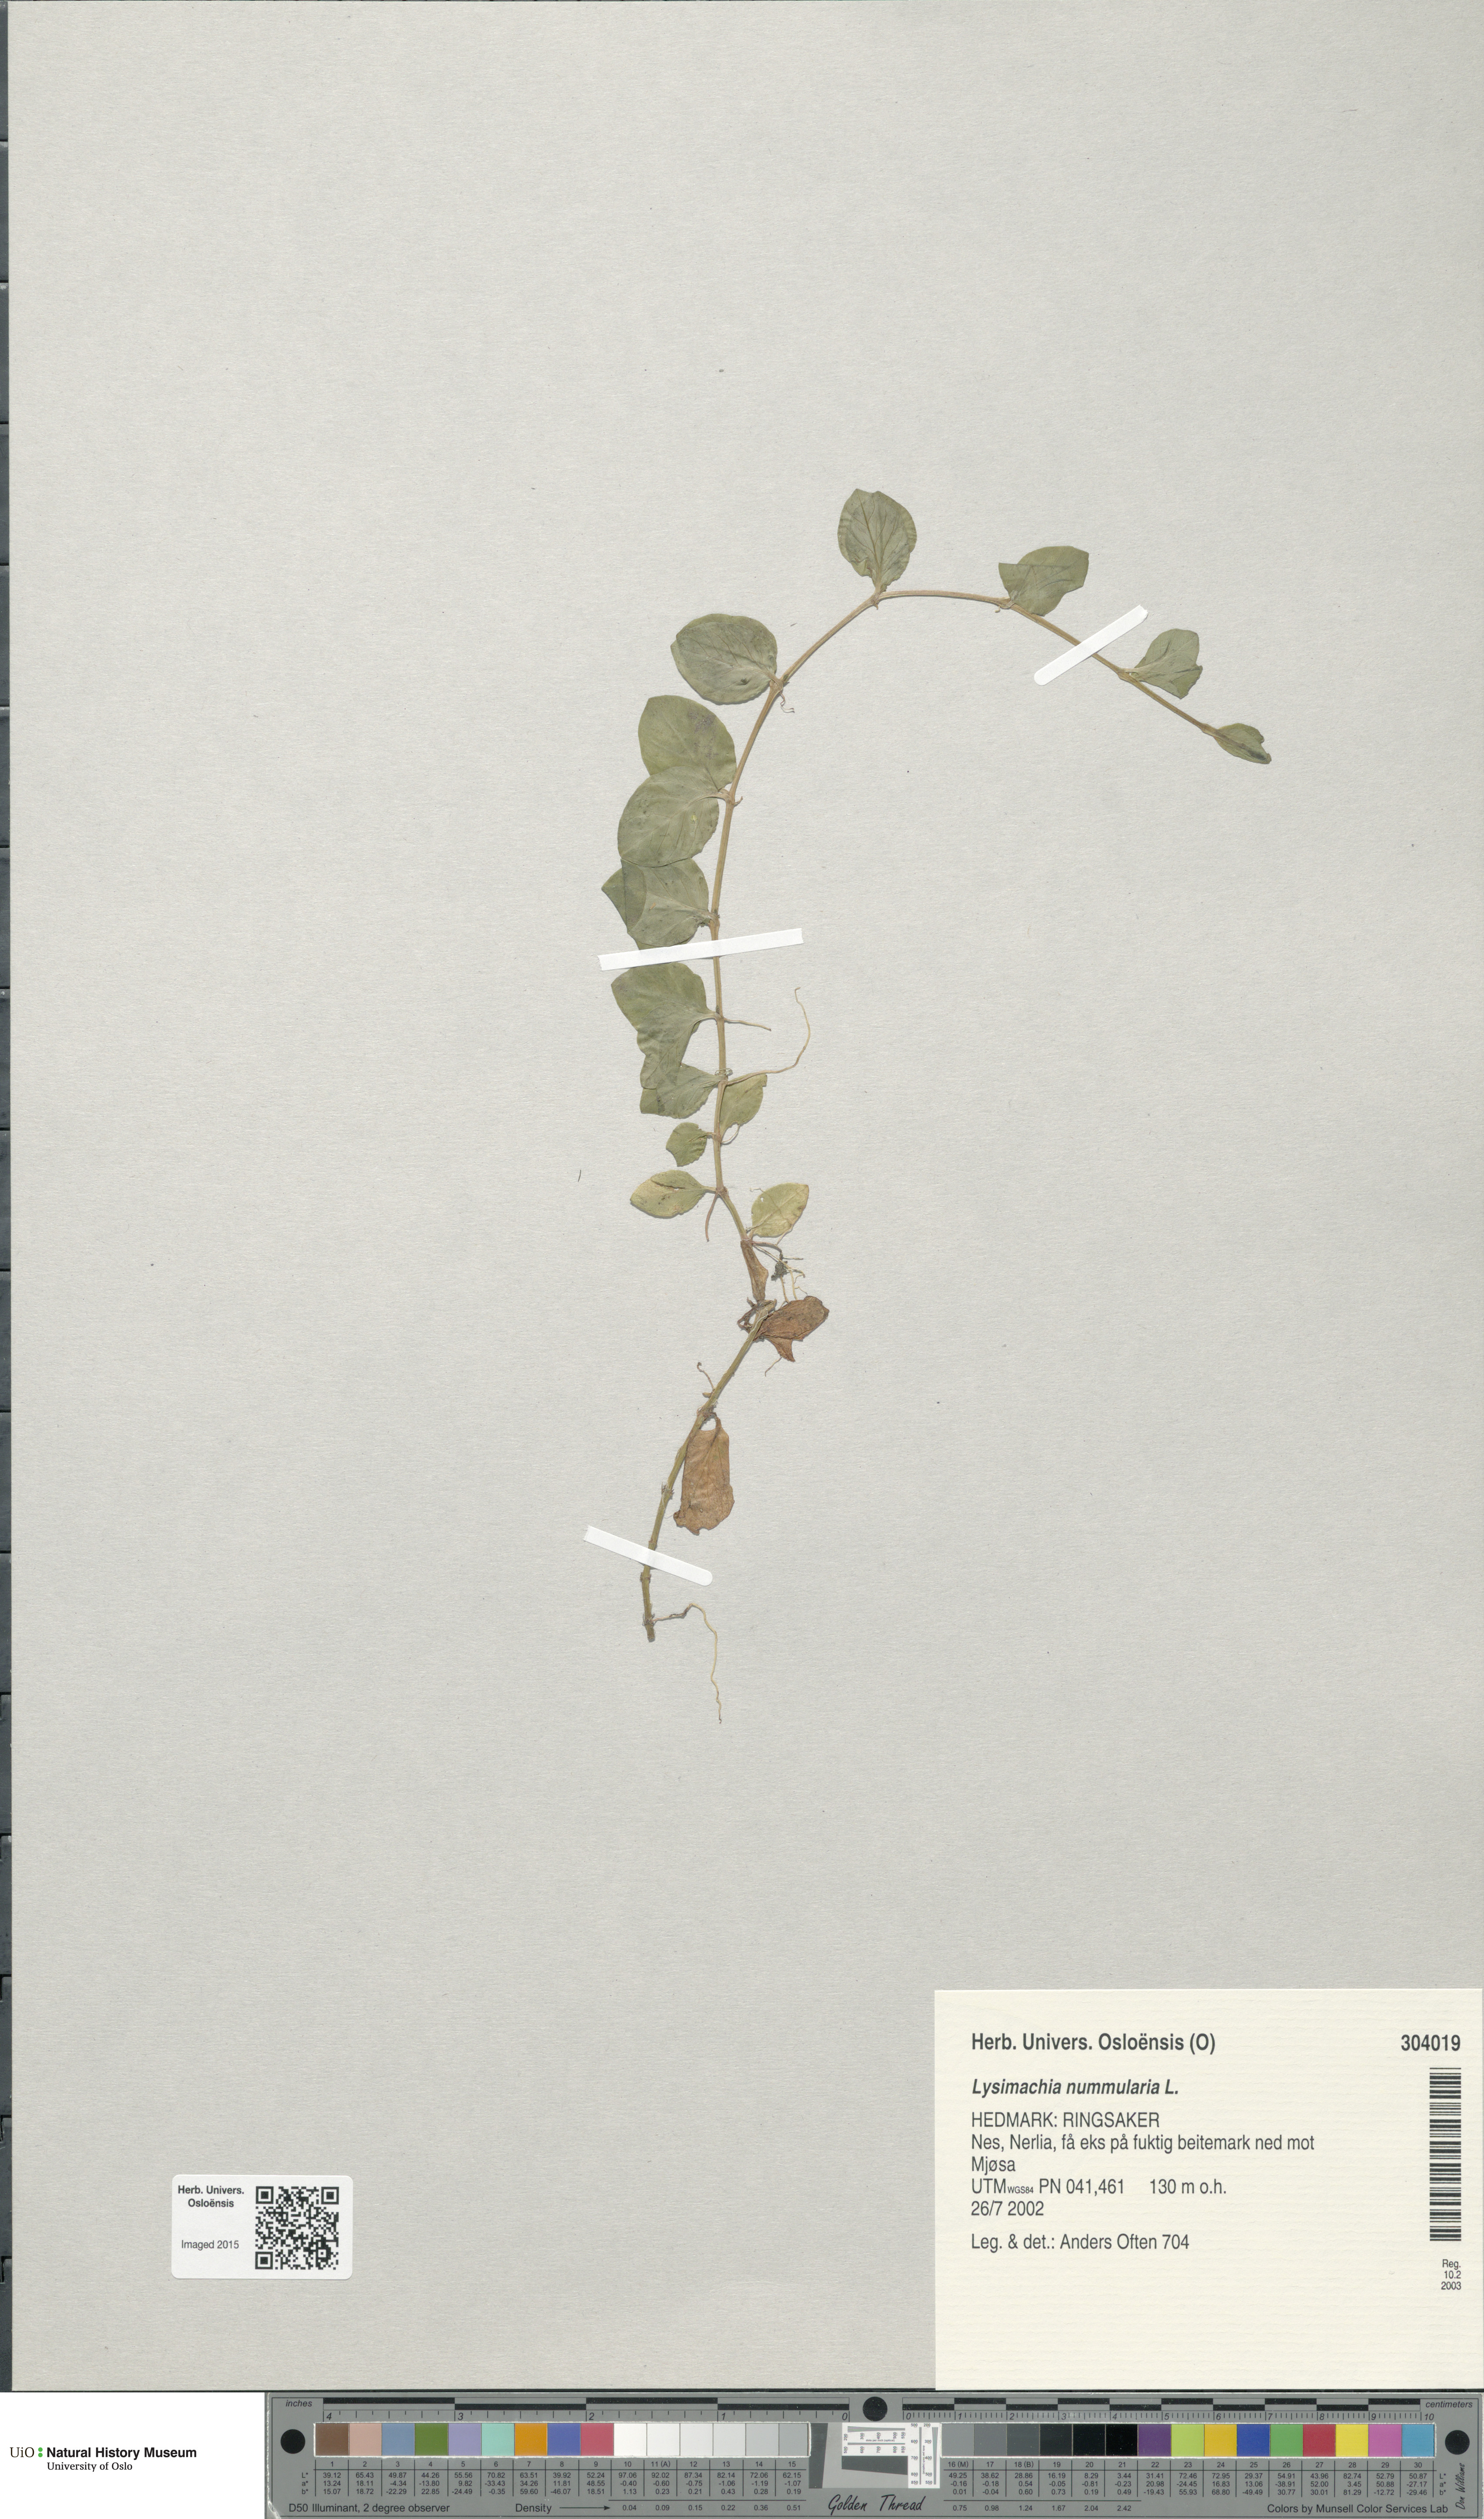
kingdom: Plantae
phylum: Tracheophyta
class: Magnoliopsida
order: Ericales
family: Primulaceae
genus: Lysimachia
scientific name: Lysimachia nummularia
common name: Moneywort
